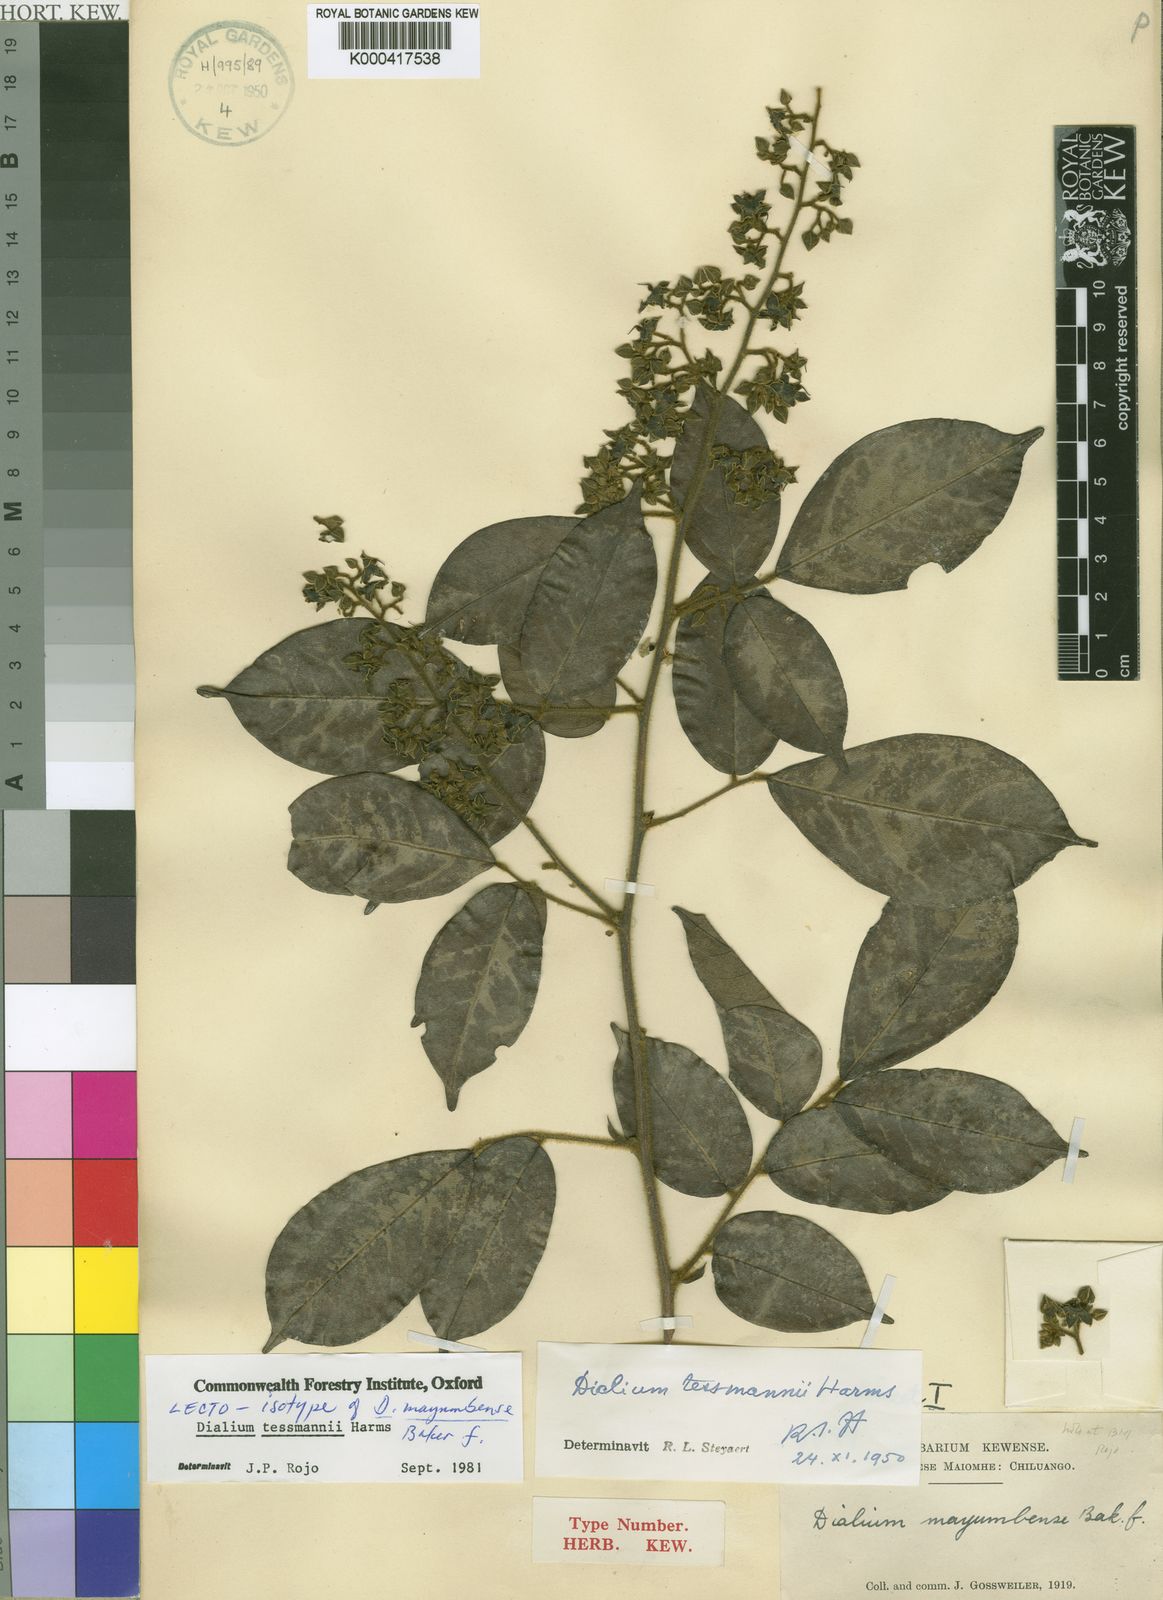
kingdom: Plantae
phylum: Tracheophyta
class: Magnoliopsida
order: Fabales
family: Fabaceae
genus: Dialium
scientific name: Dialium tessmannii
